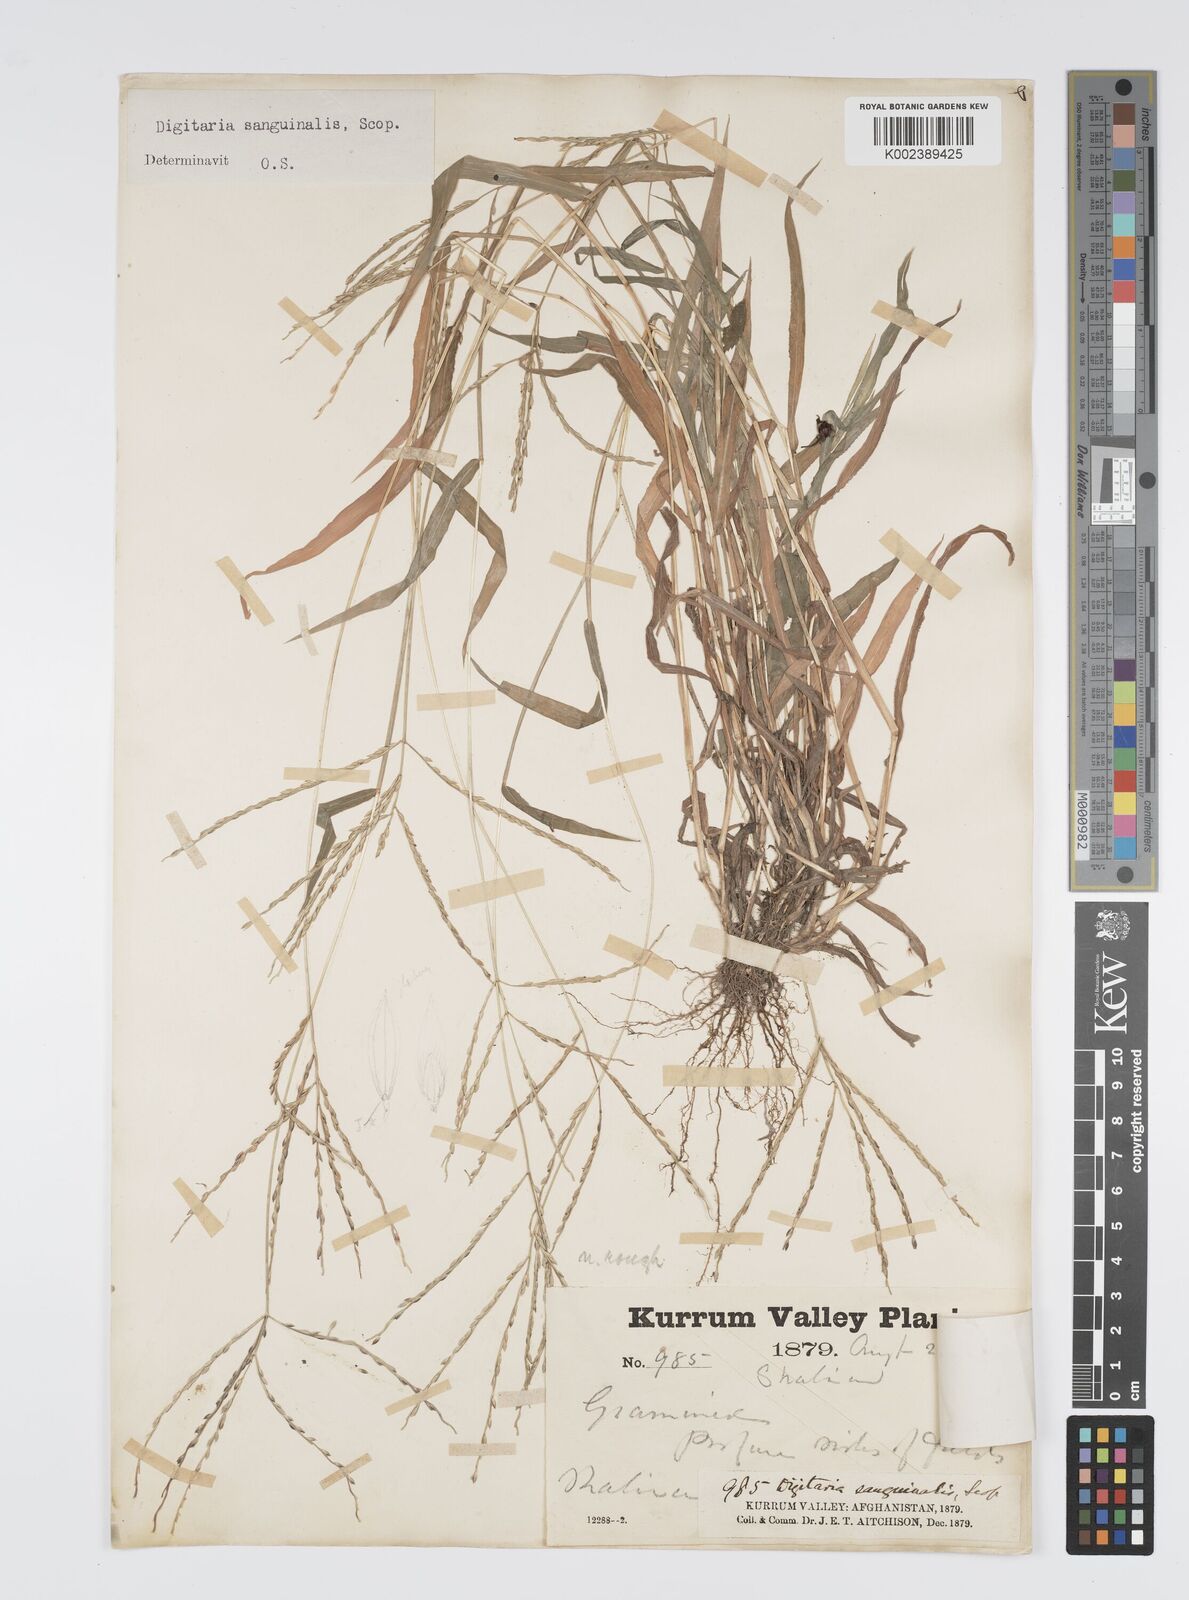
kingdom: Plantae
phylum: Tracheophyta
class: Liliopsida
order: Poales
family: Poaceae
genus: Digitaria
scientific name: Digitaria sanguinalis
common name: Hairy crabgrass
